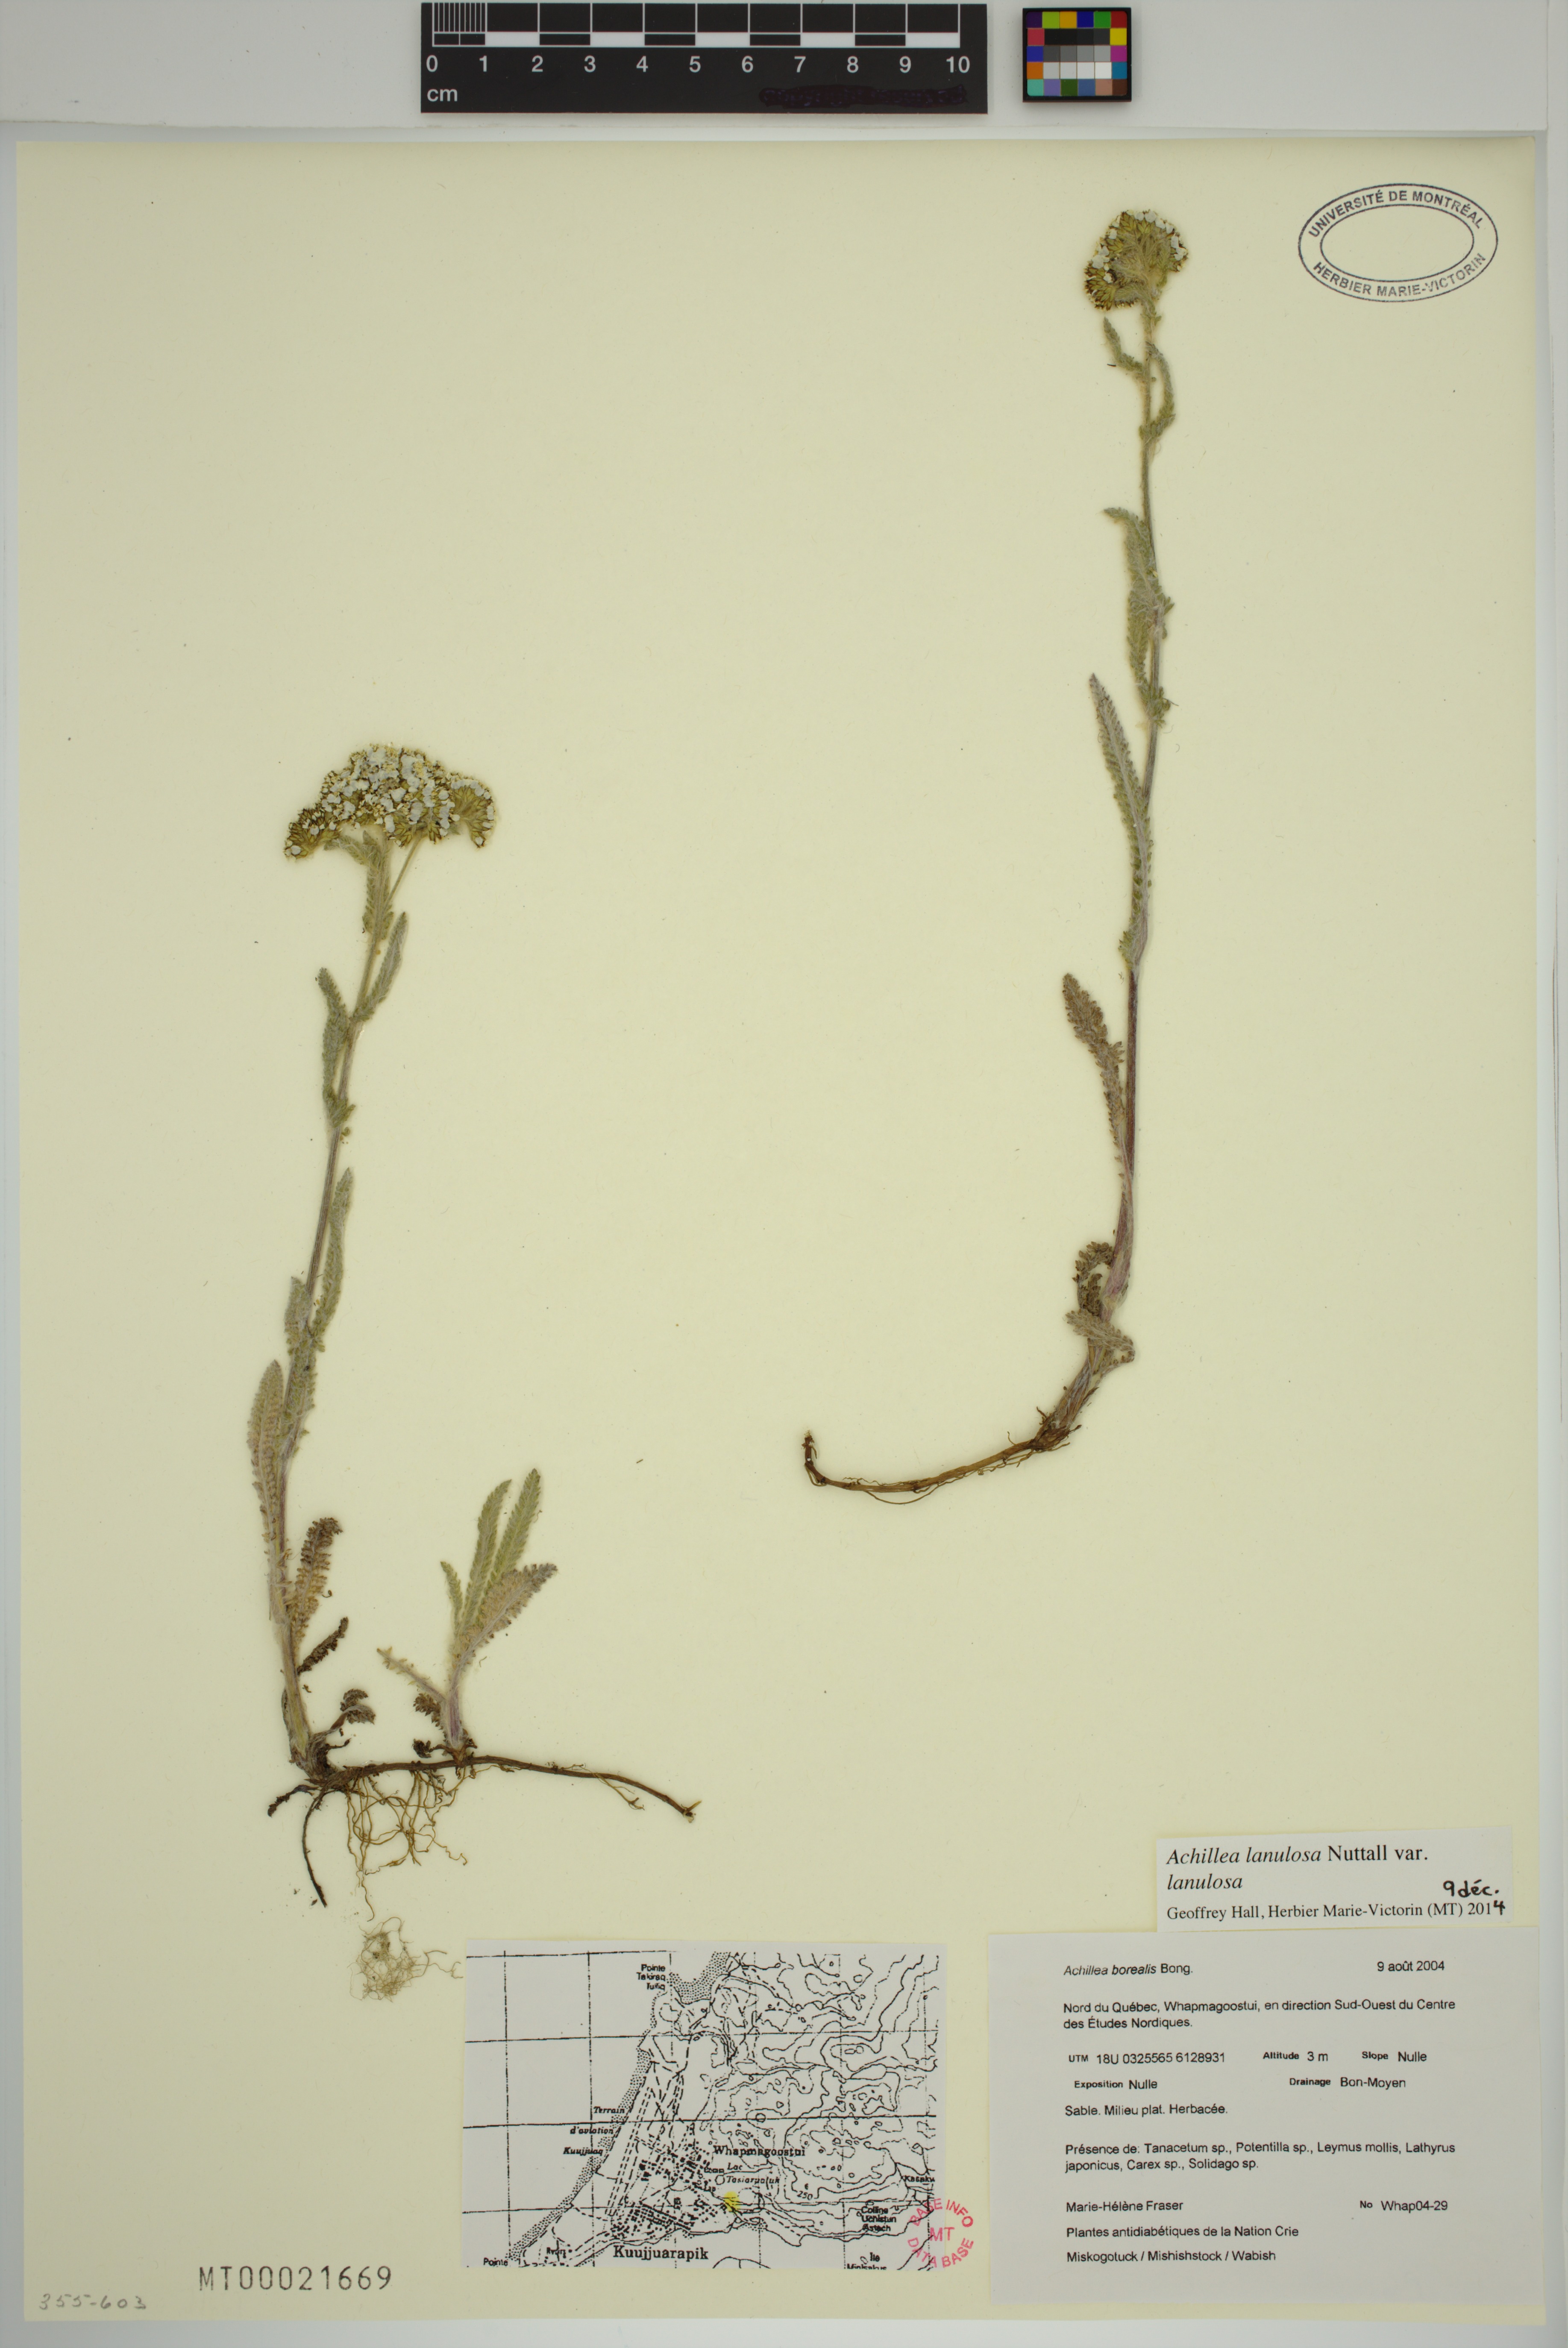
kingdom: Plantae
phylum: Tracheophyta
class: Magnoliopsida
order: Asterales
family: Asteraceae
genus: Achillea
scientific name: Achillea millefolium
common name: Yarrow
